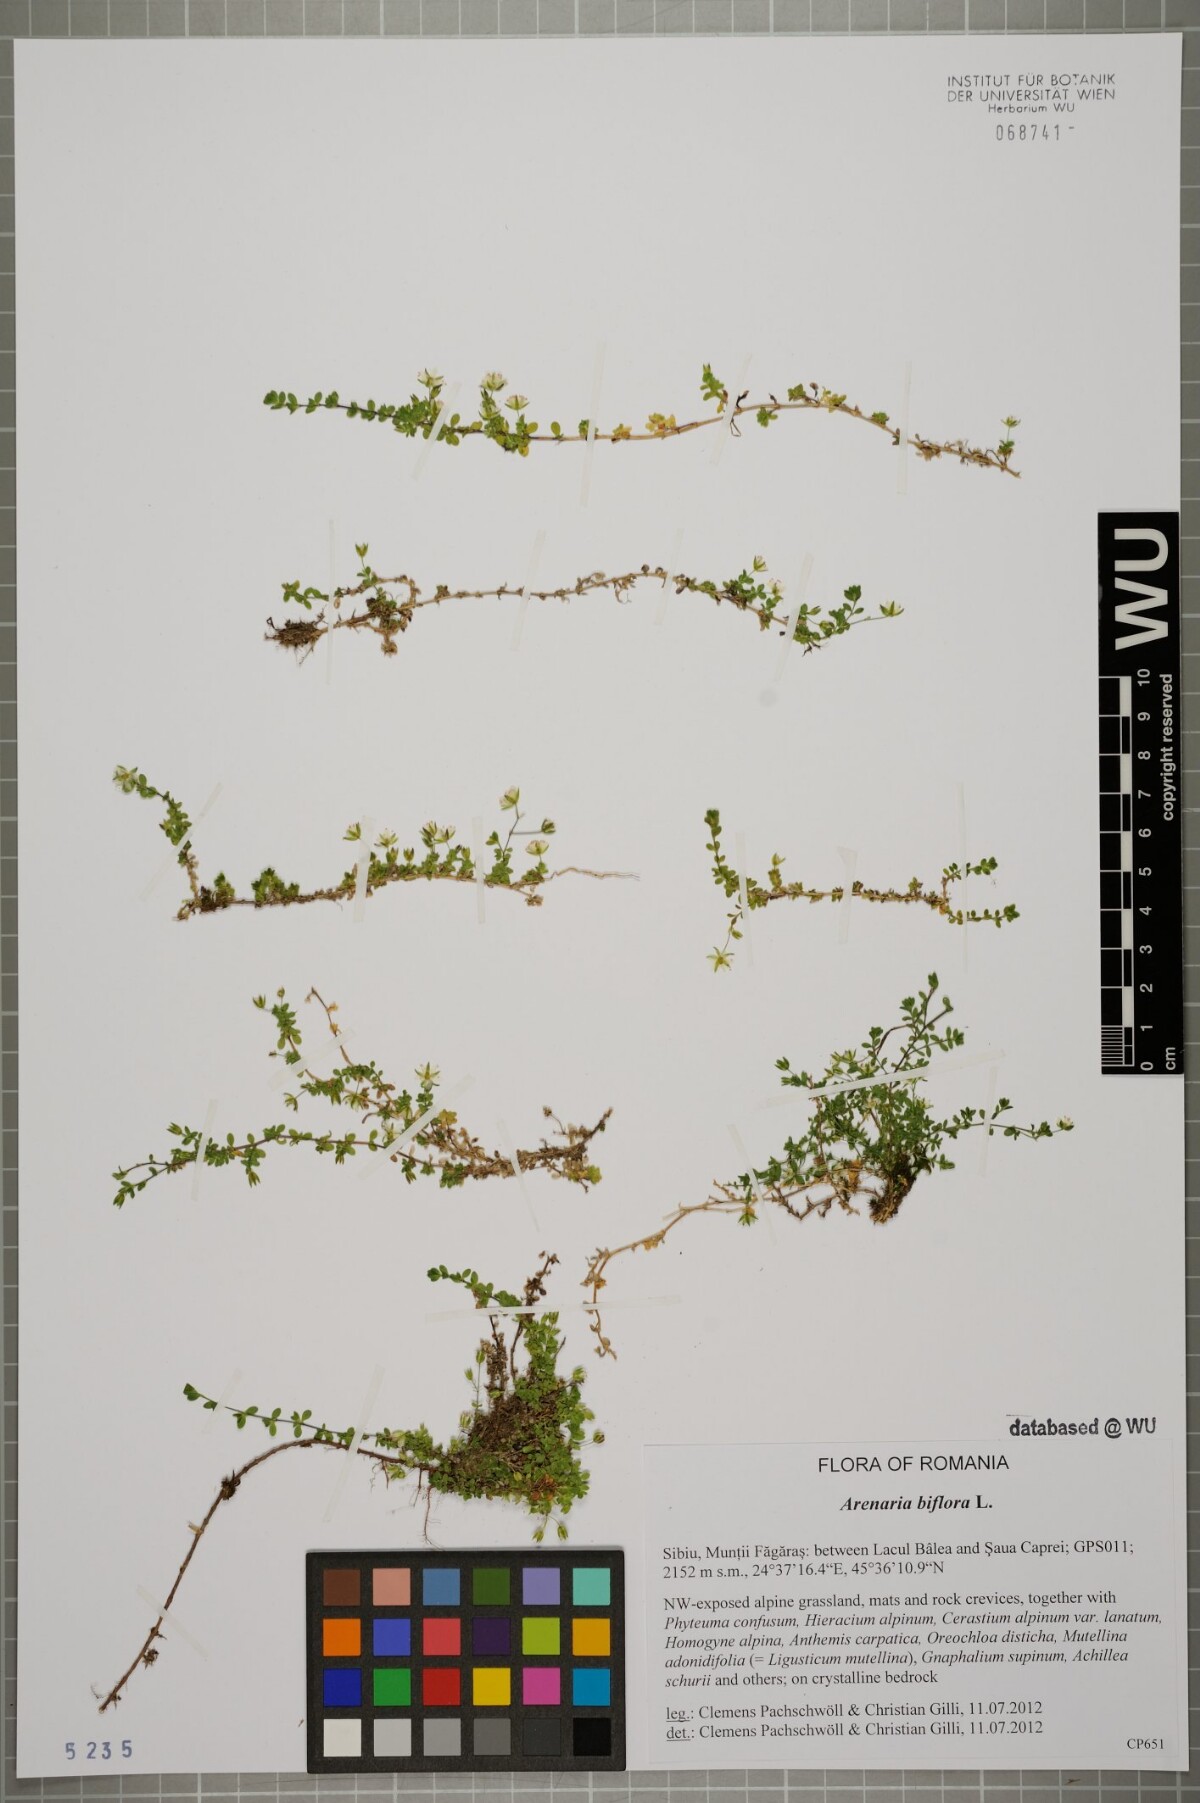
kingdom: Plantae
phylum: Tracheophyta
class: Magnoliopsida
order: Caryophyllales
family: Caryophyllaceae
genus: Arenaria
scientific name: Arenaria biflora
